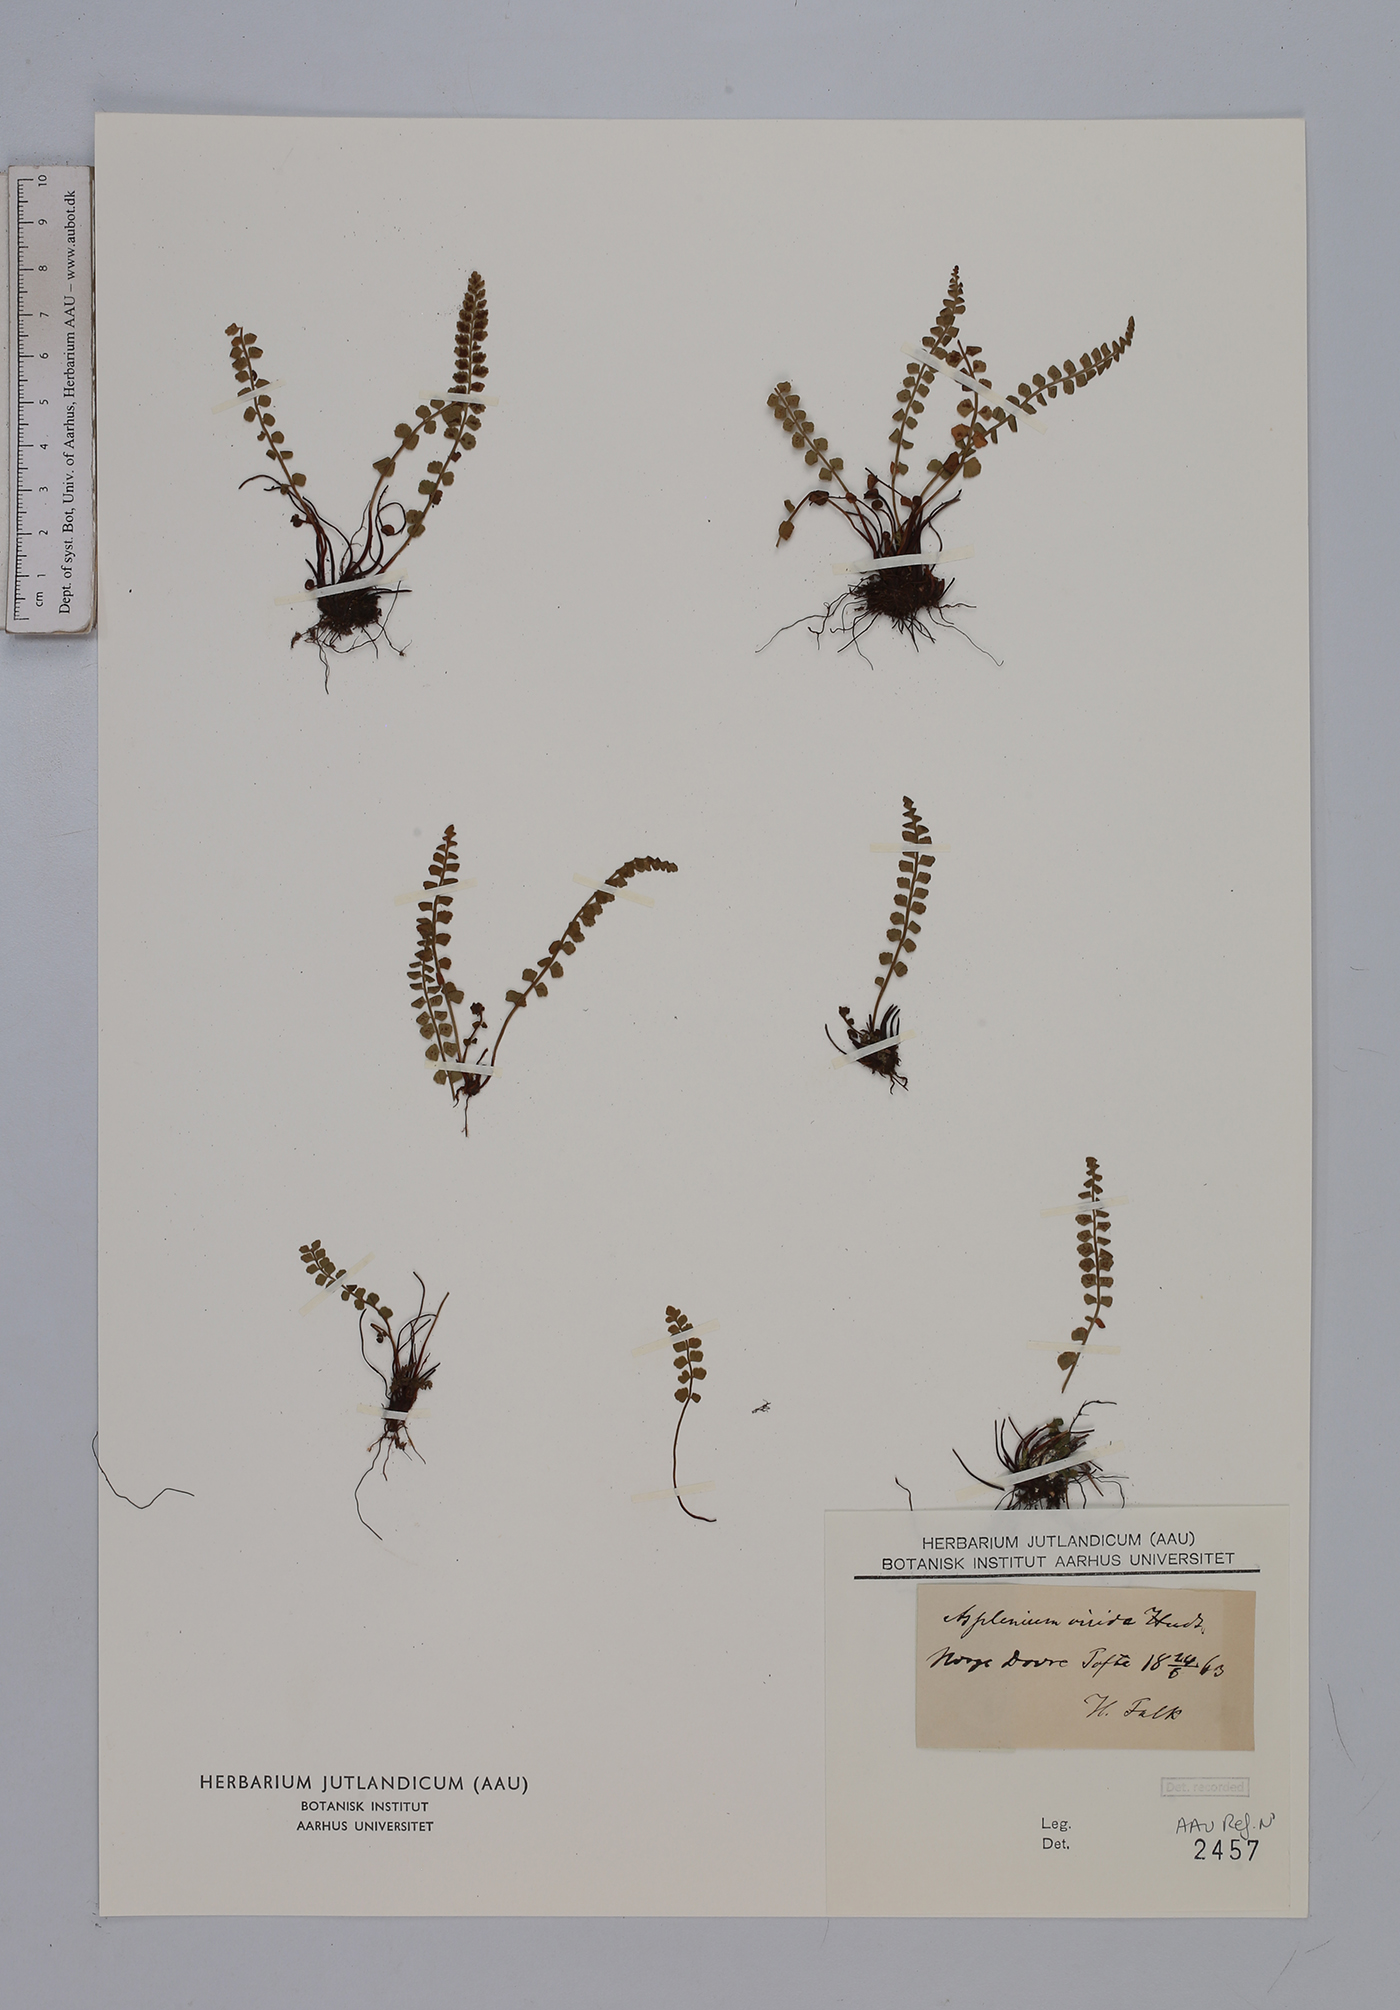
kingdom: Plantae
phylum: Tracheophyta
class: Polypodiopsida
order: Polypodiales
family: Aspleniaceae
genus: Asplenium
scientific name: Asplenium viride
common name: Green spleenwort
